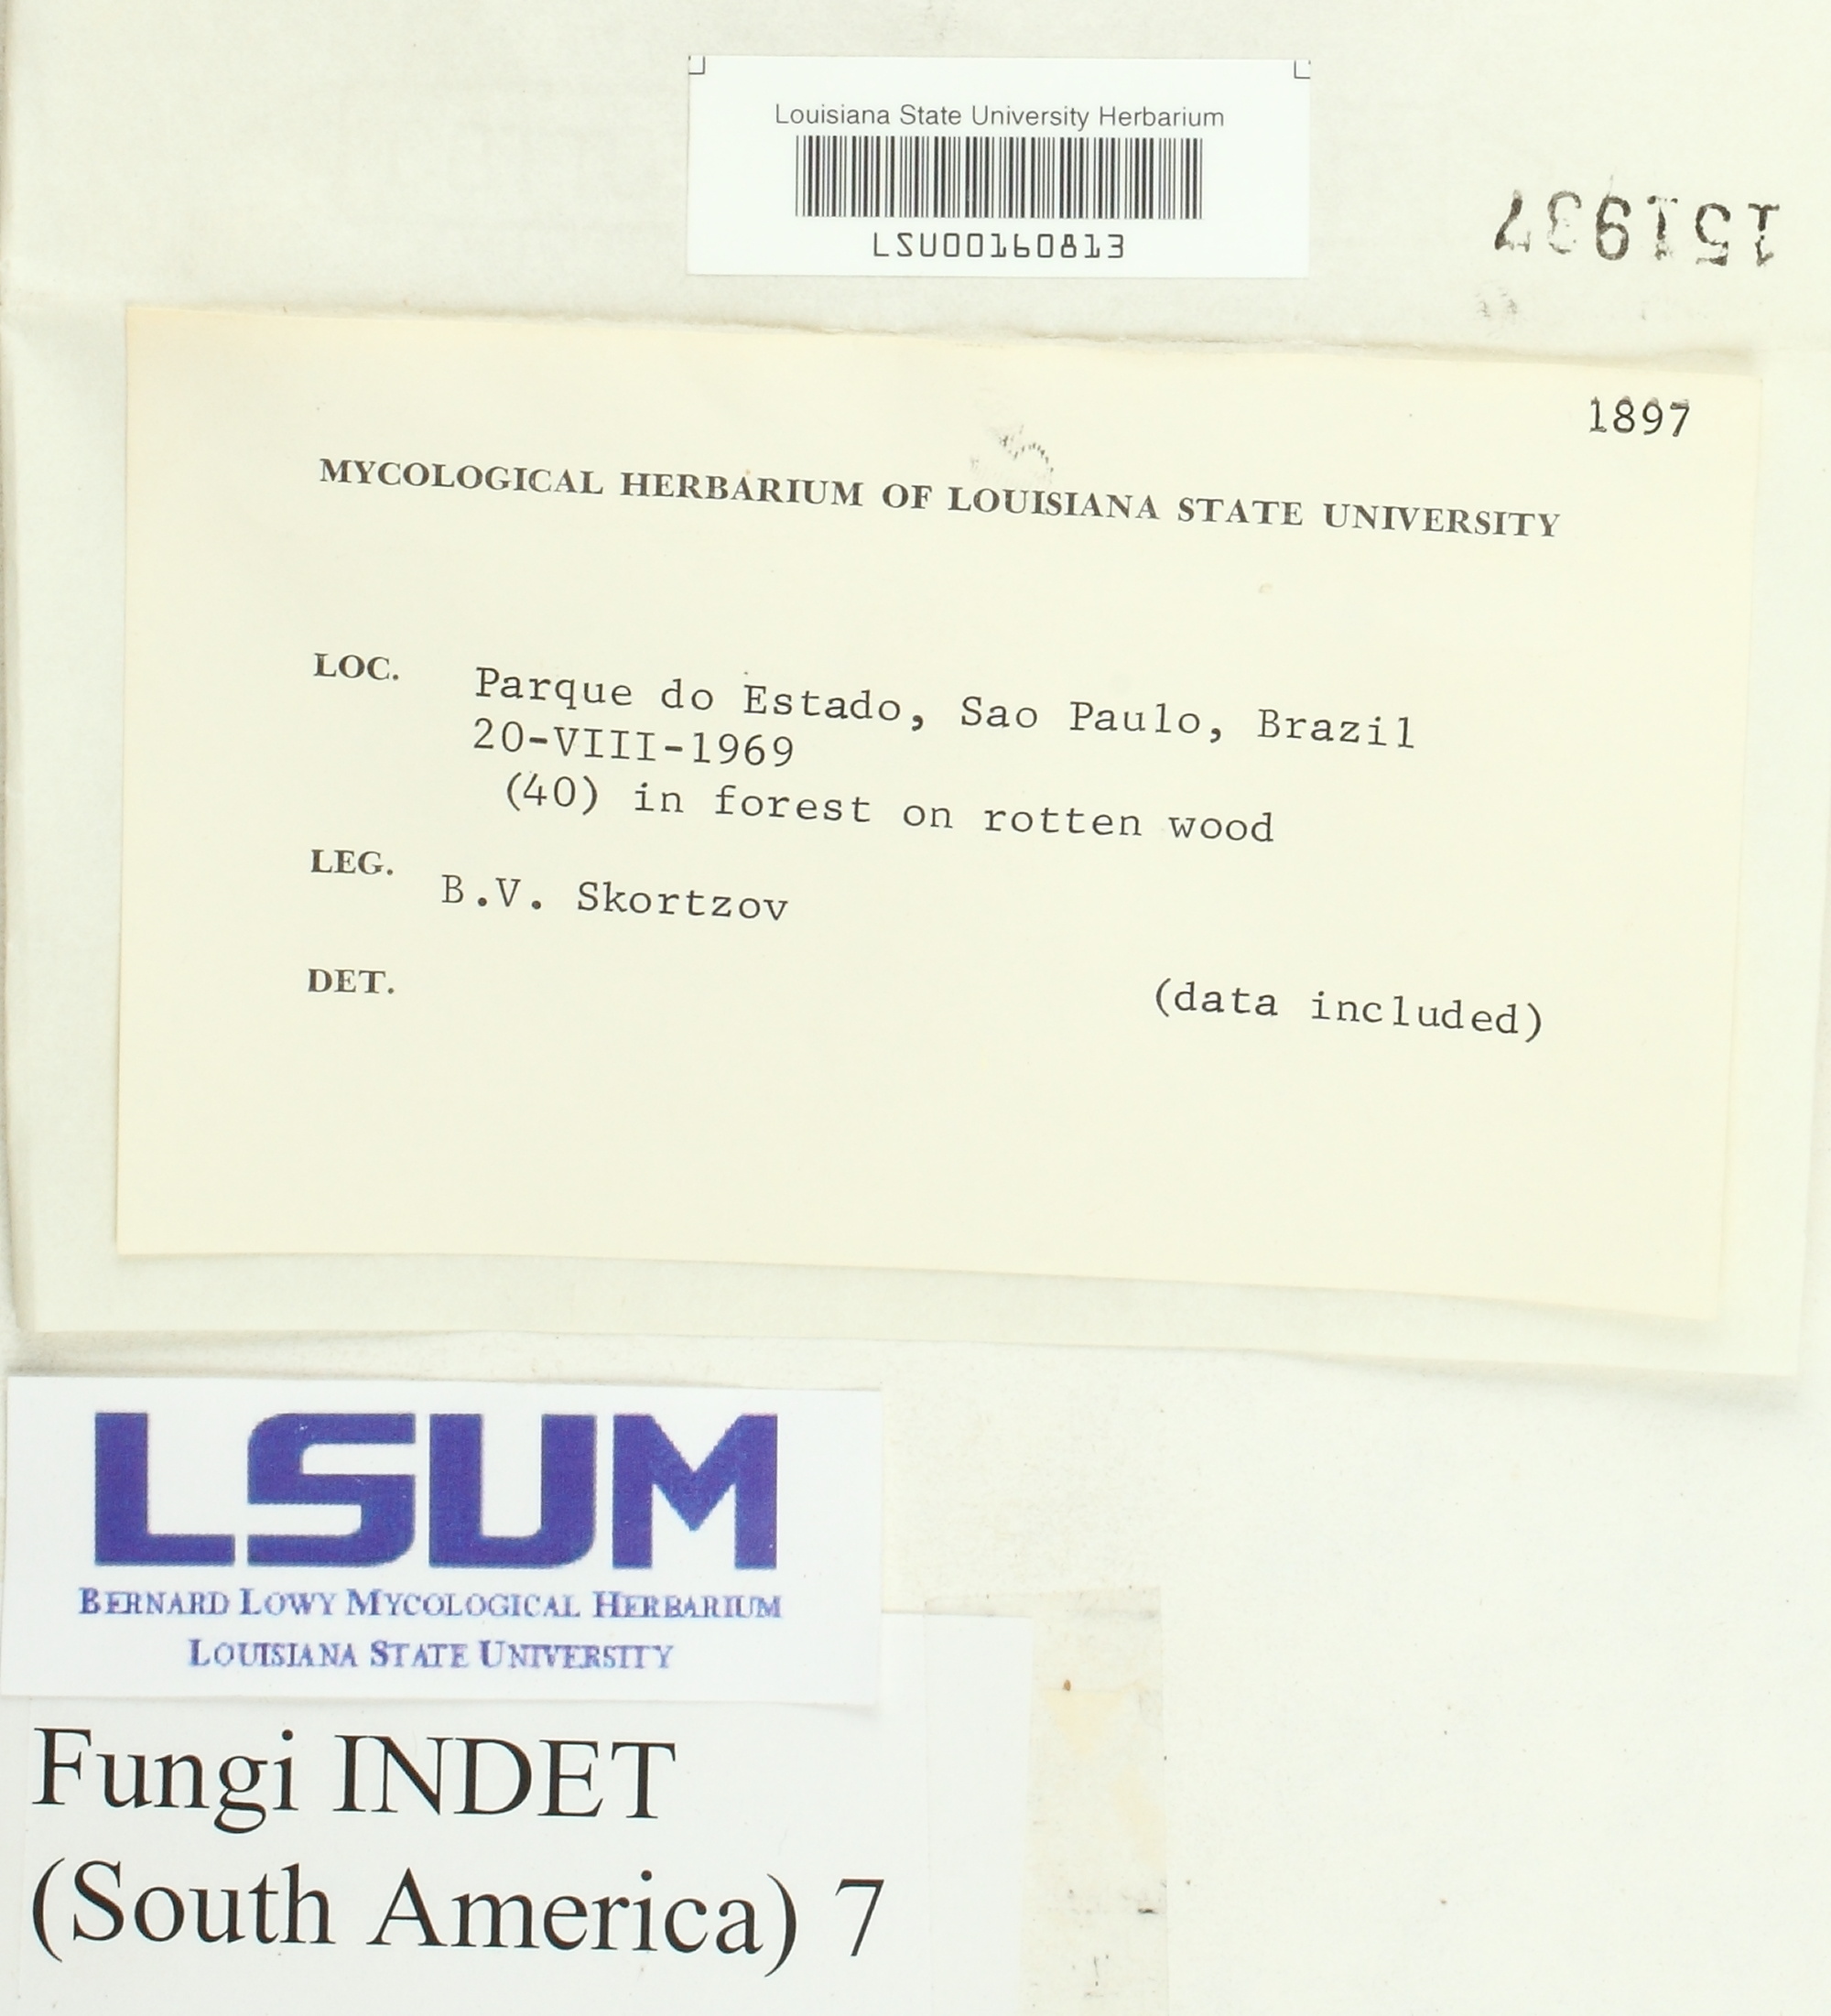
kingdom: Fungi
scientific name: Fungi
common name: Fungi
